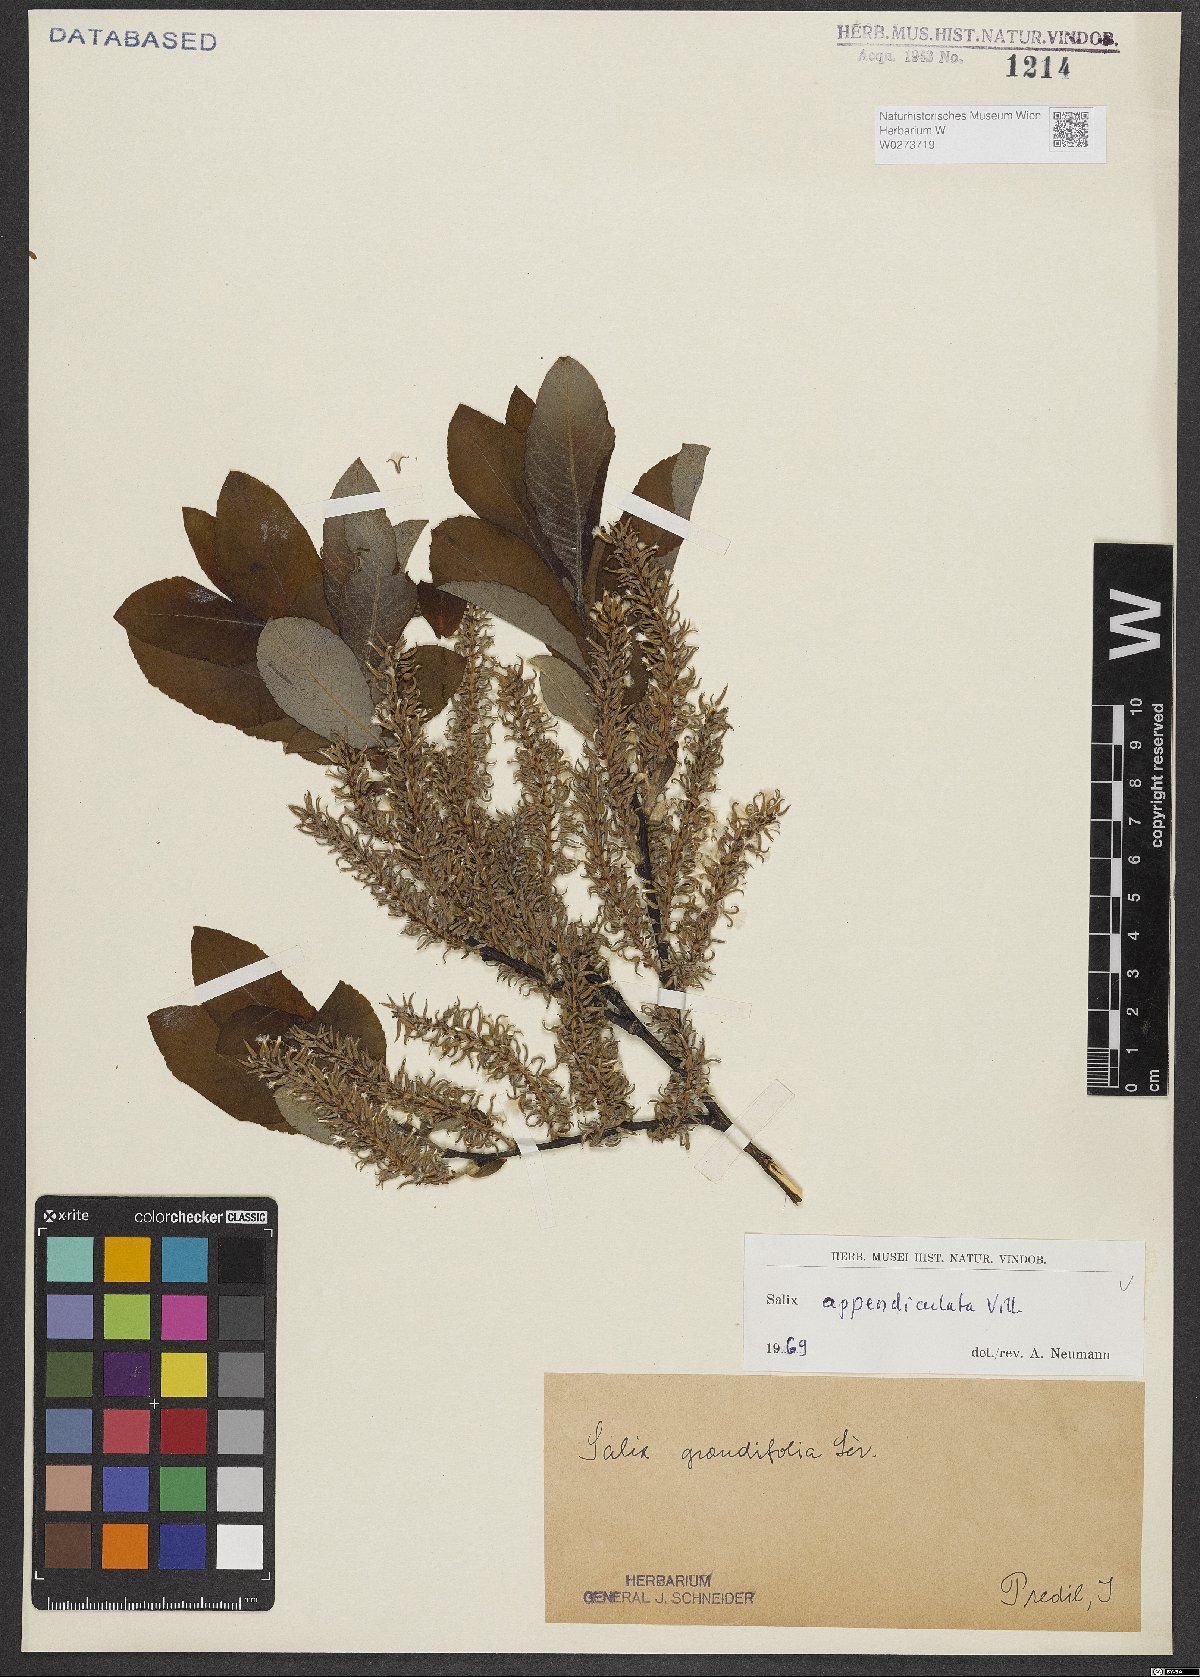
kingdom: Plantae
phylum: Tracheophyta
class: Magnoliopsida
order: Malpighiales
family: Salicaceae
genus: Salix
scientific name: Salix appendiculata
